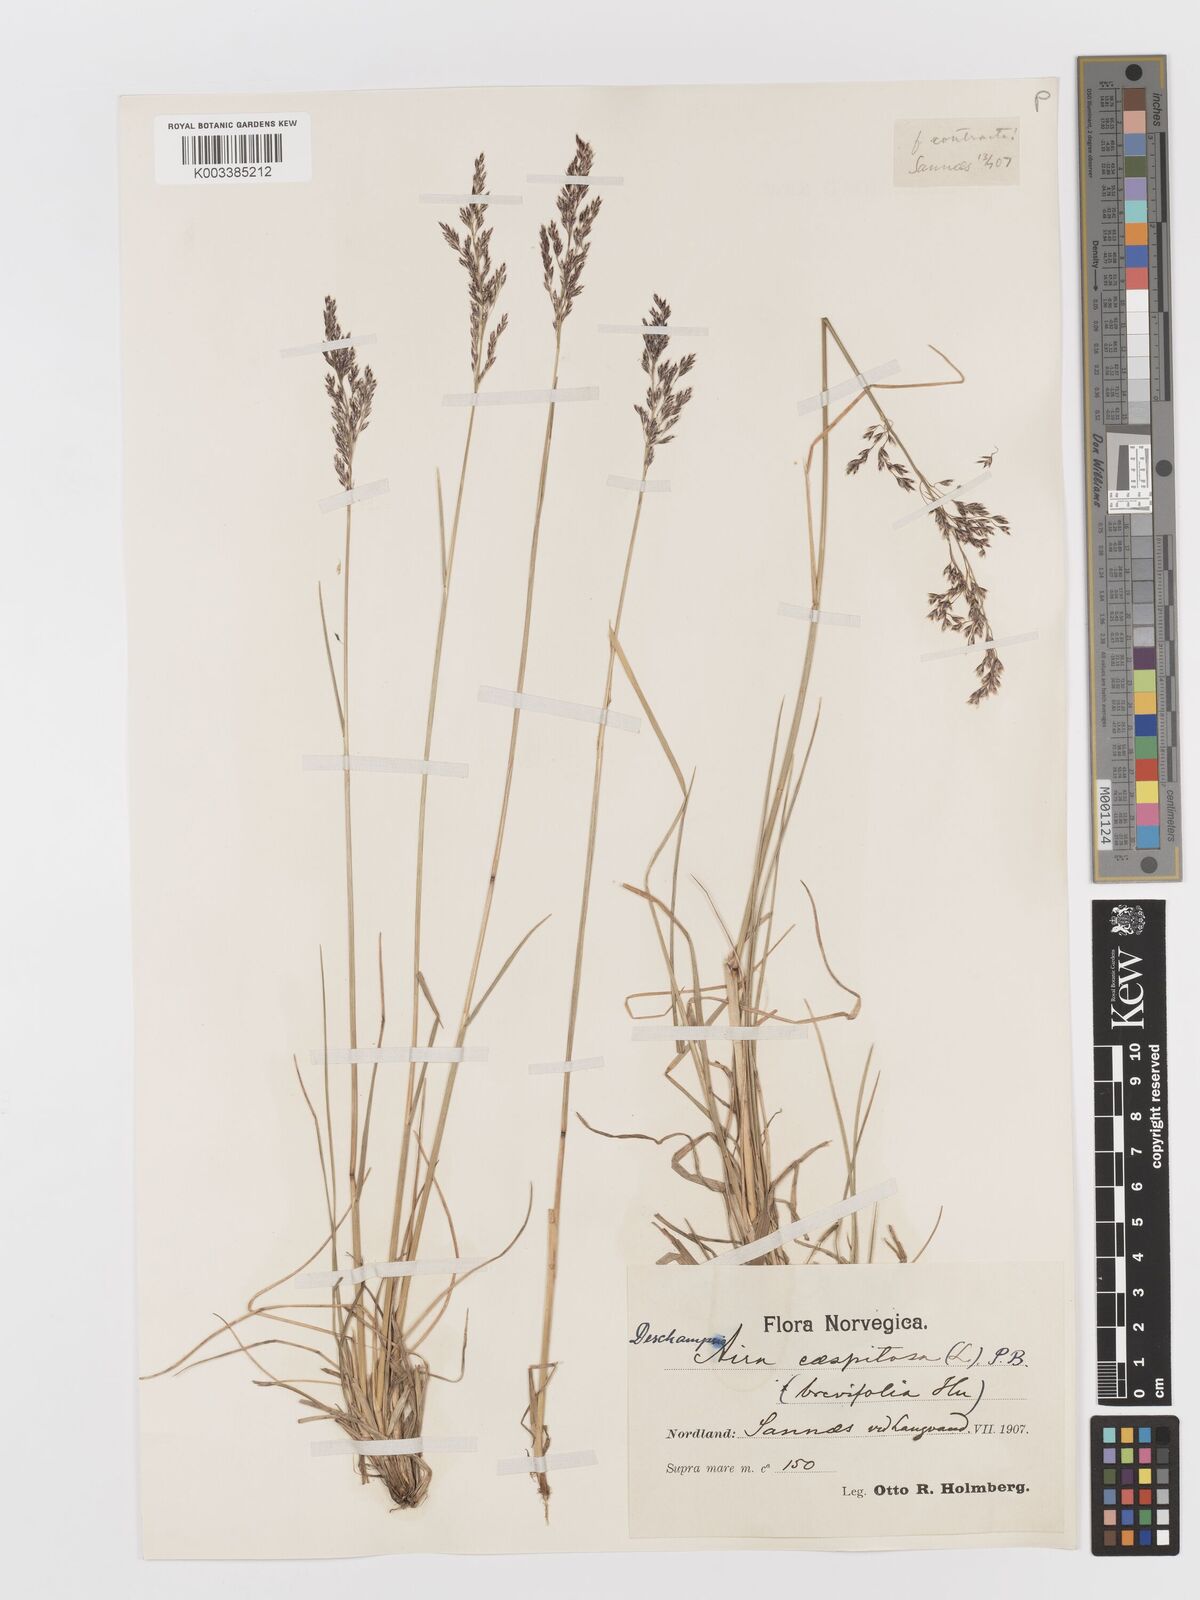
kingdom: Plantae
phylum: Tracheophyta
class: Liliopsida
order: Poales
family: Poaceae
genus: Deschampsia
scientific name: Deschampsia cespitosa
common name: Tufted hair-grass
